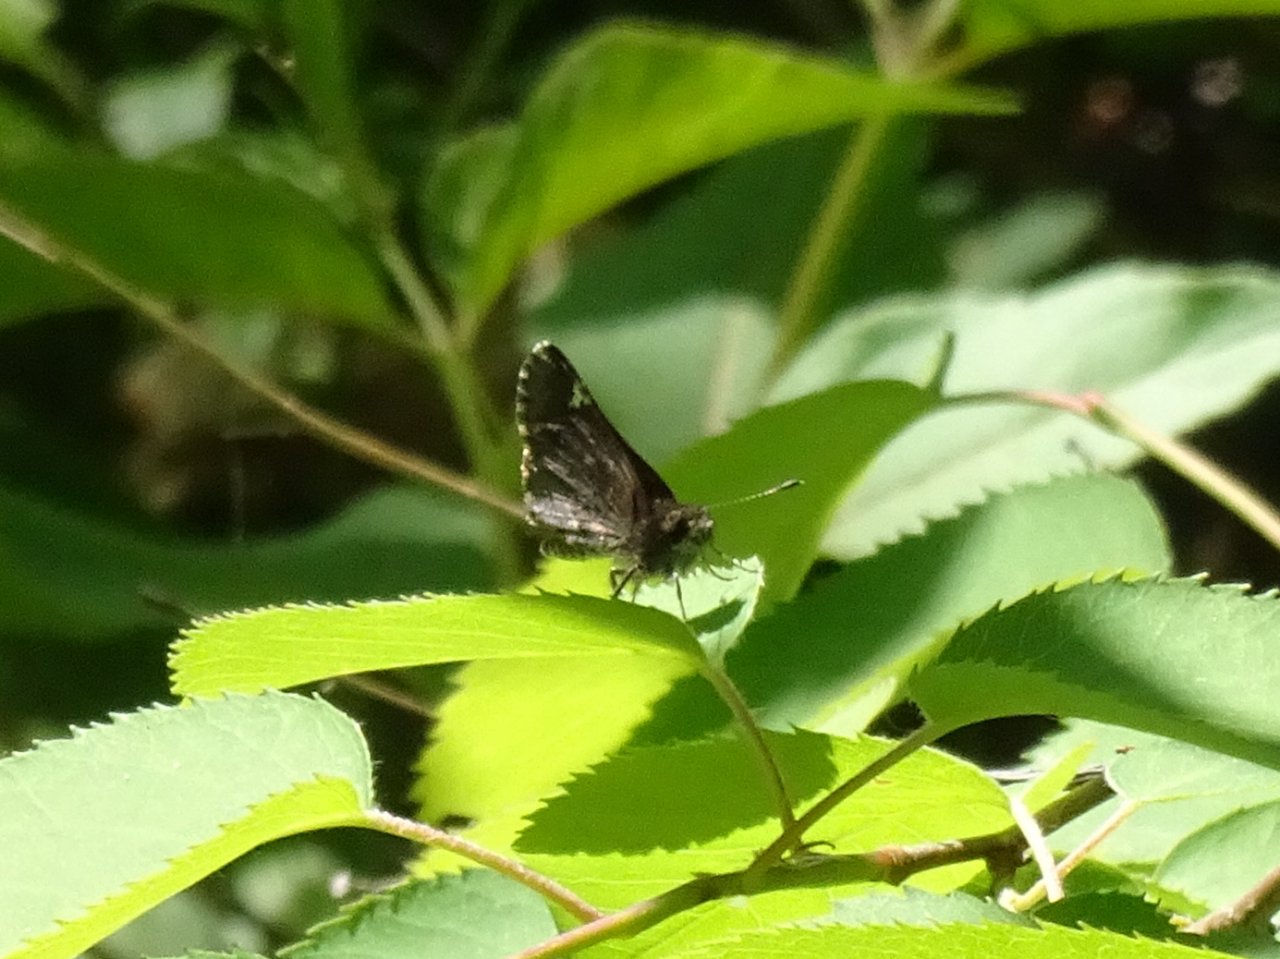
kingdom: Animalia
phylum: Arthropoda
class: Insecta
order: Lepidoptera
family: Hesperiidae
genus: Mastor
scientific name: Mastor vialis
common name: Common Roadside-Skipper
